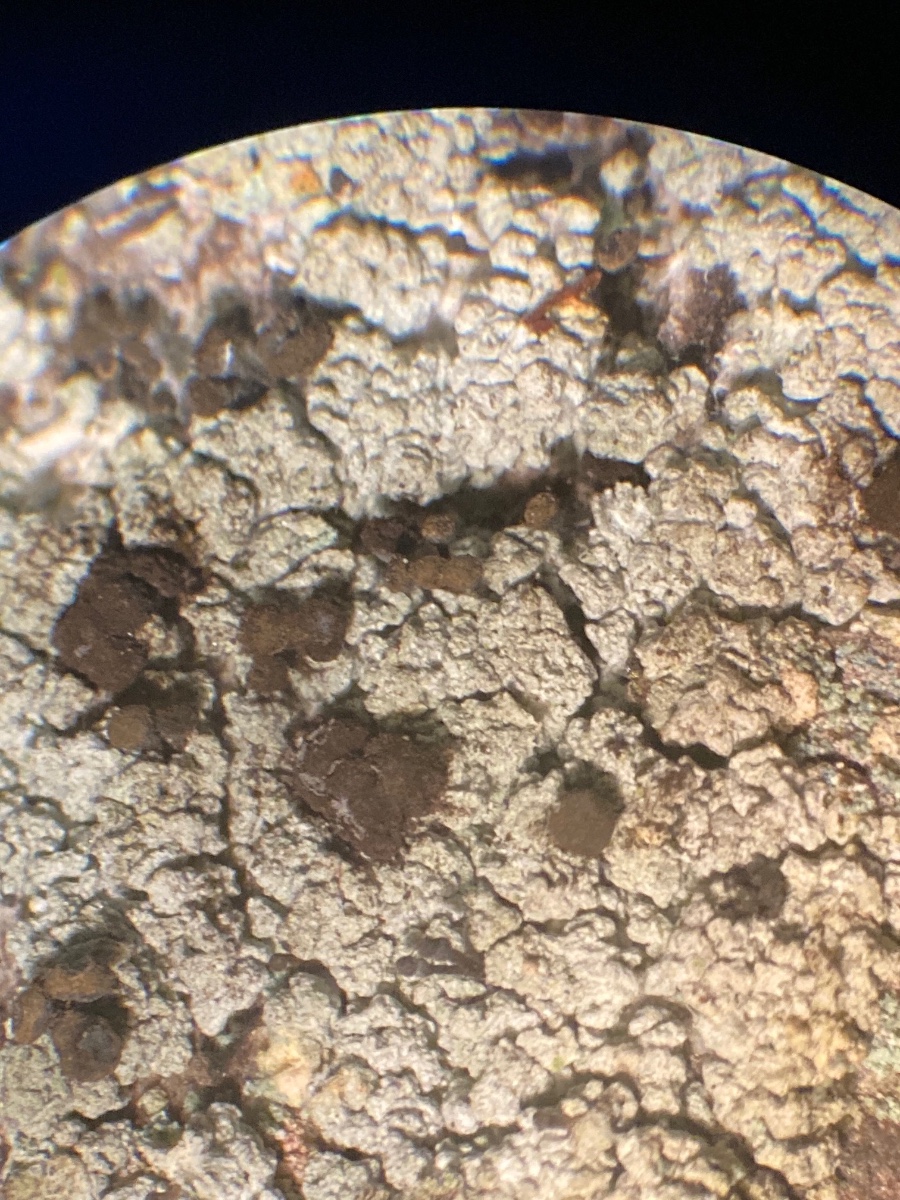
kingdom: Fungi
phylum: Ascomycota
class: Coniocybomycetes
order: Coniocybales
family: Coniocybaceae
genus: Chaenotheca
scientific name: Chaenotheca ferruginea
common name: rustbrun knappenålslav
